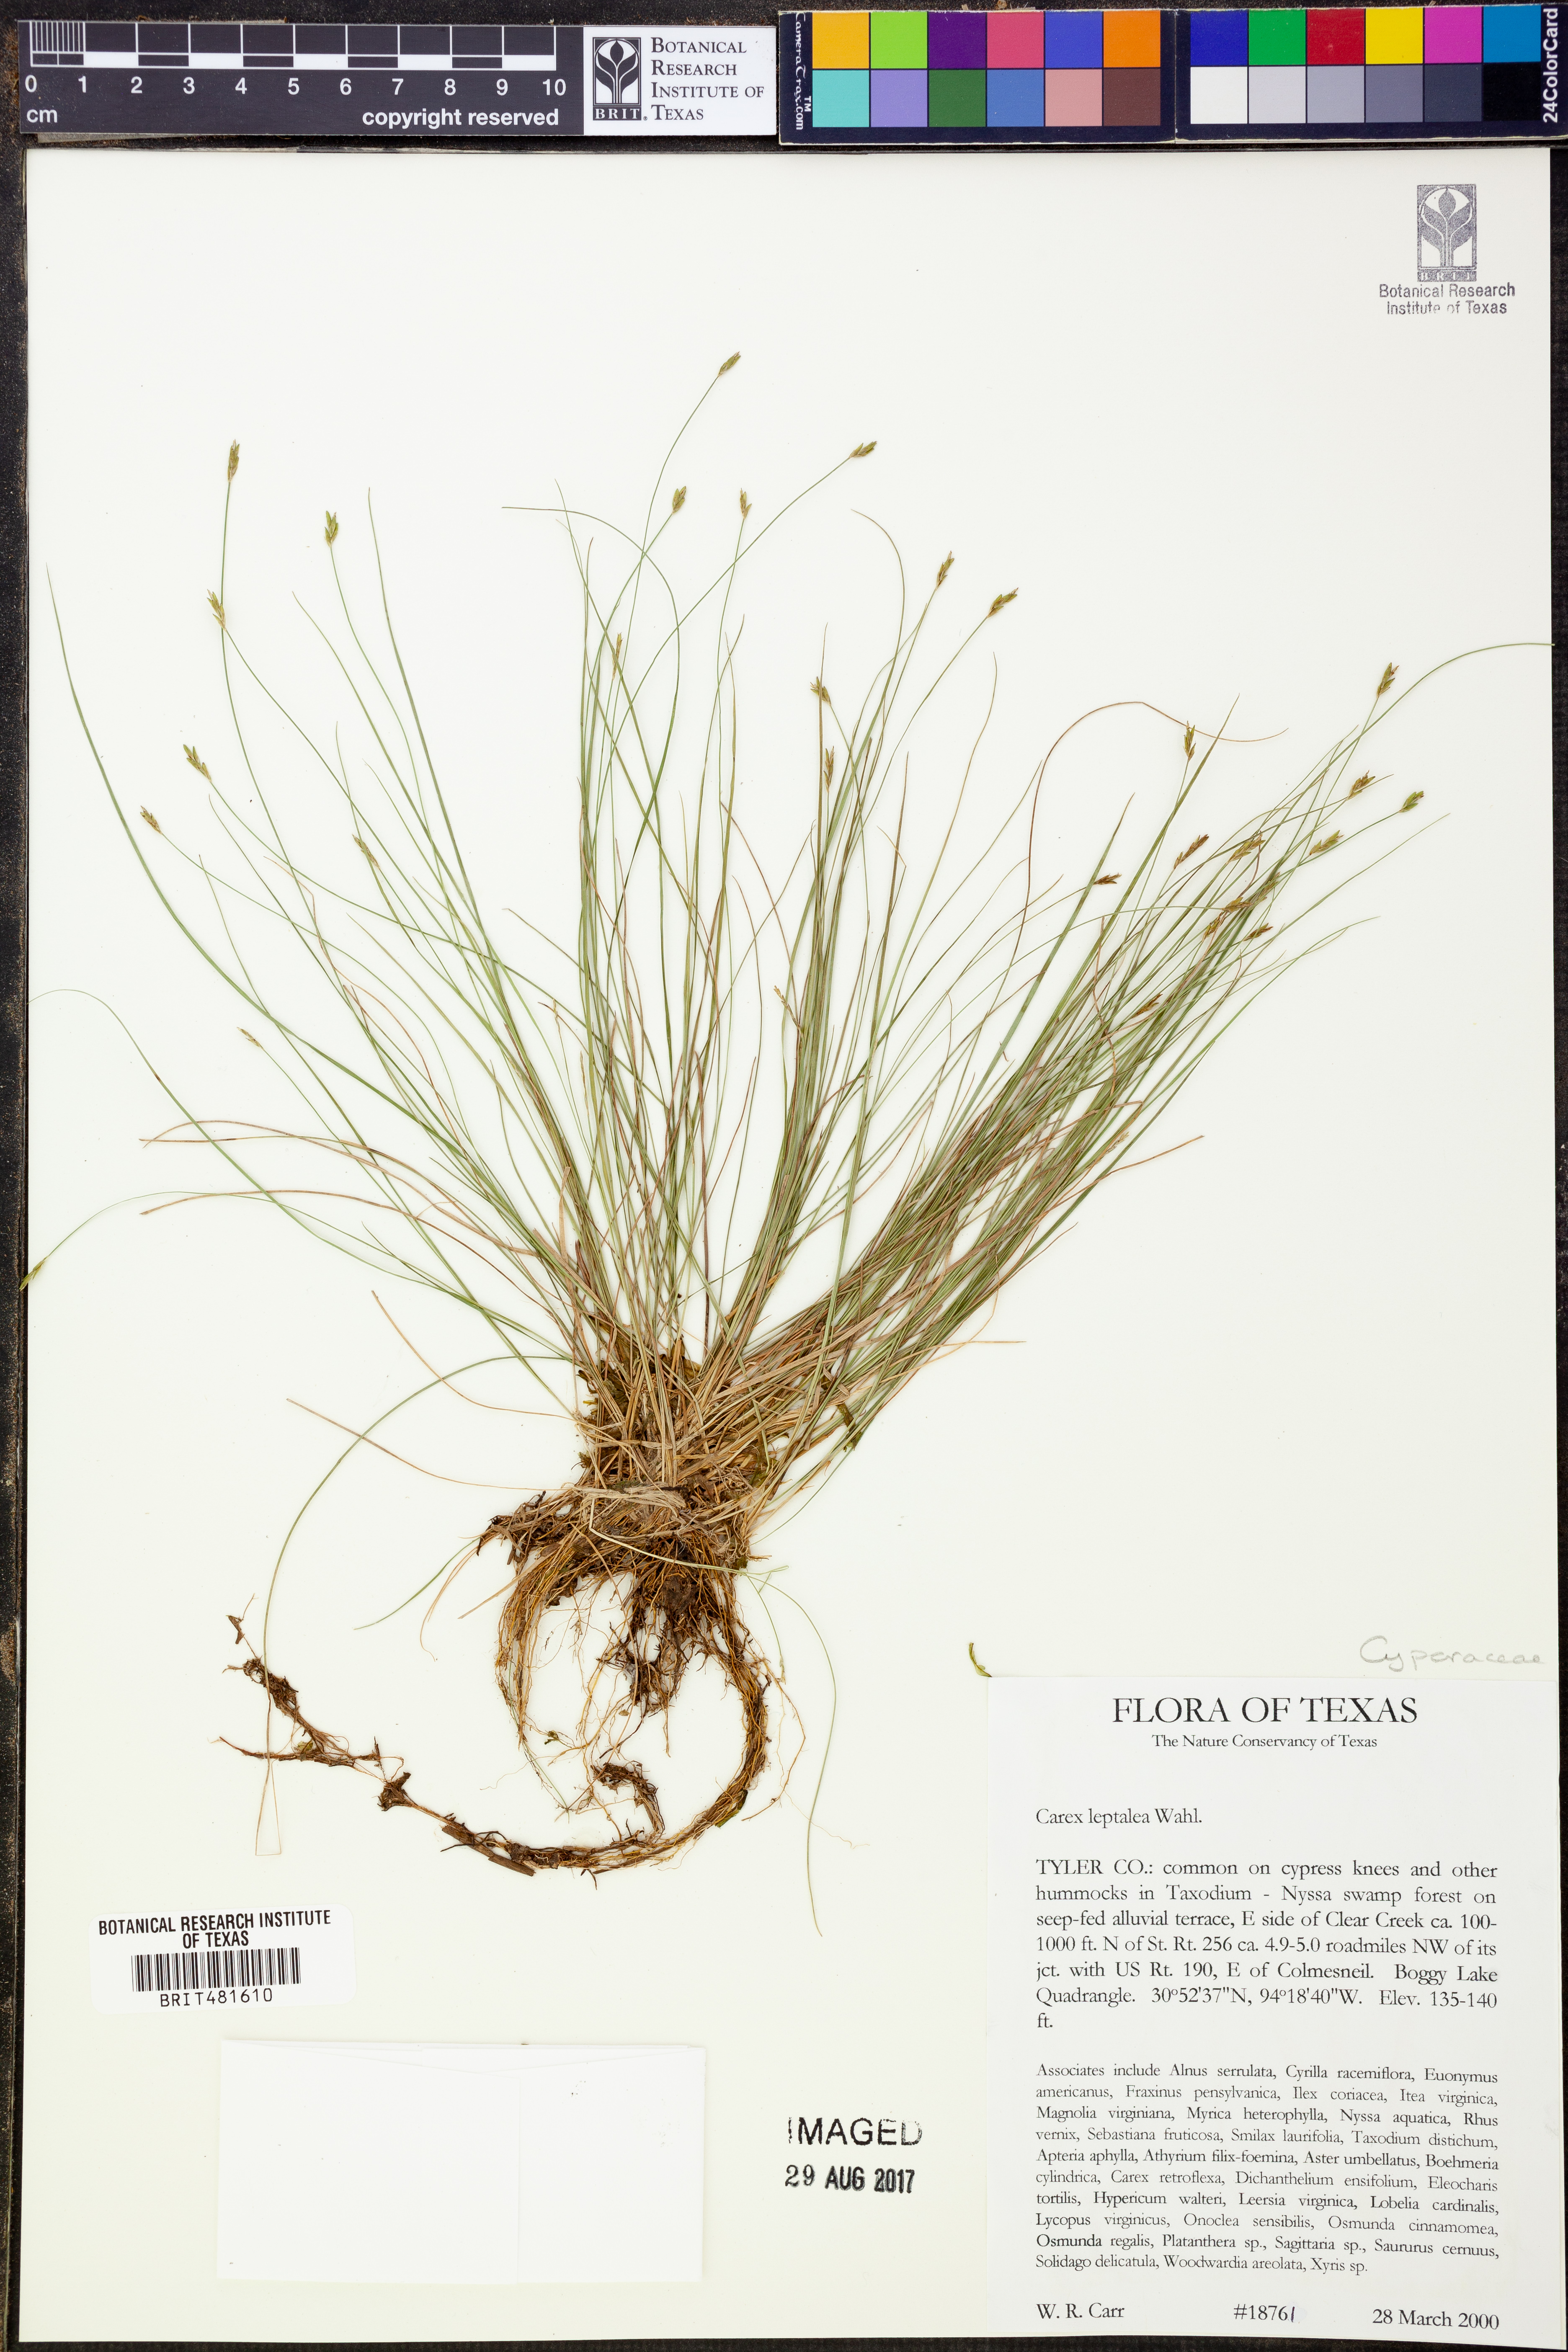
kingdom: Plantae
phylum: Tracheophyta
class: Liliopsida
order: Poales
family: Cyperaceae
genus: Carex
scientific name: Carex leptalea
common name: Bristly-stalked sedge
